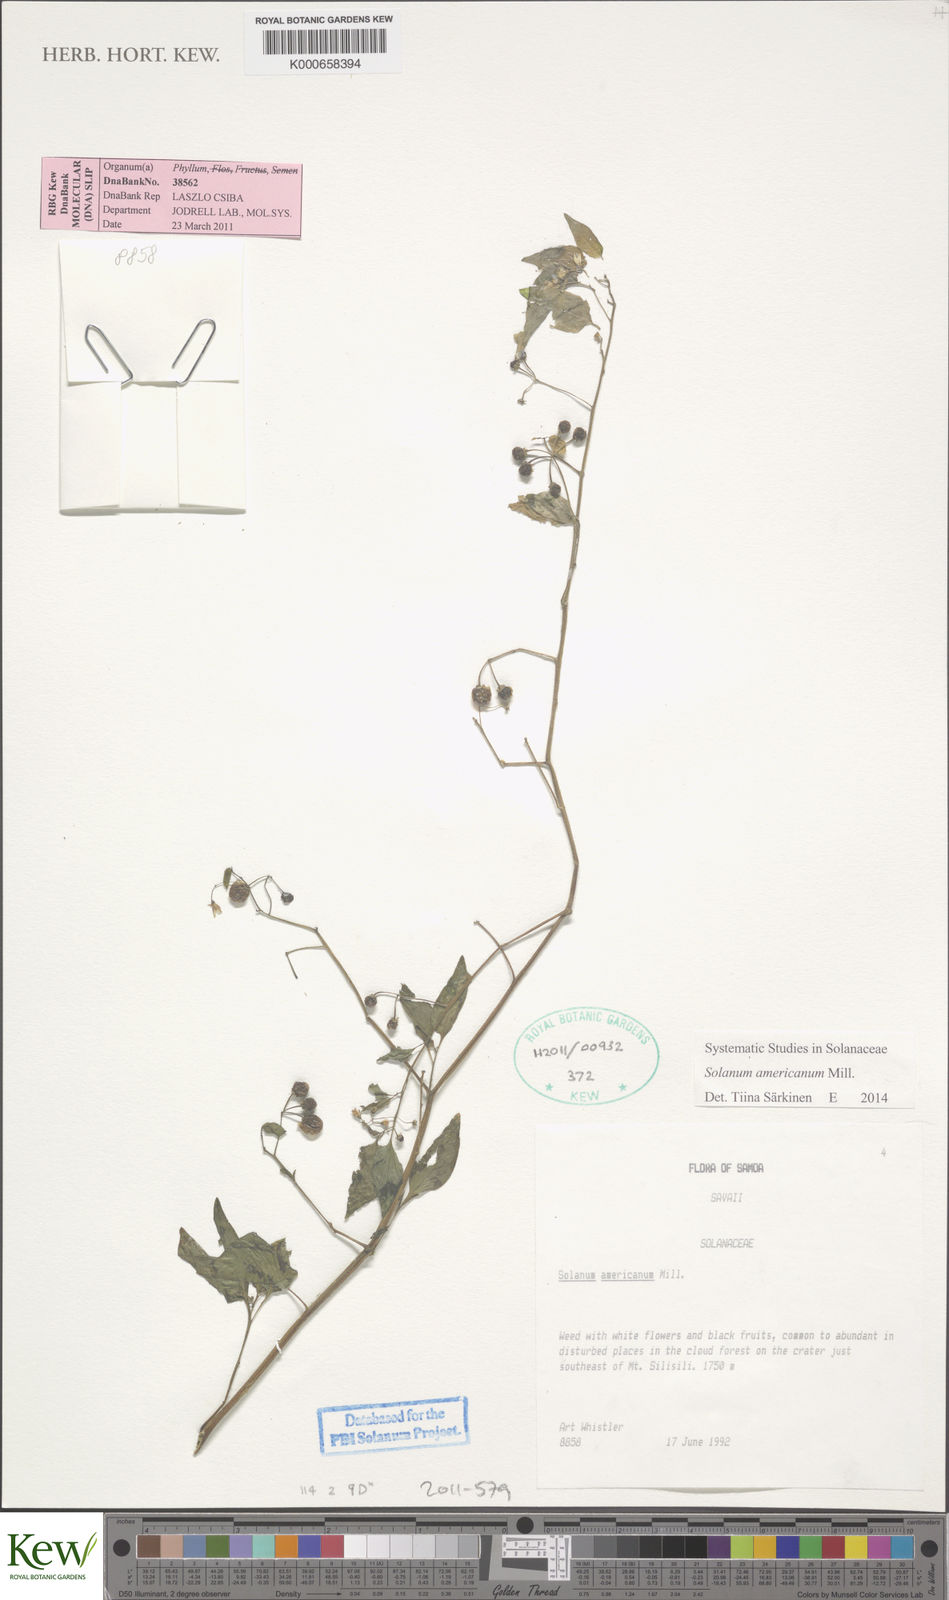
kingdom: Plantae
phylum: Tracheophyta
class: Magnoliopsida
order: Solanales
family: Solanaceae
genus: Solanum
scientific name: Solanum americanum
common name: American black nightshade
